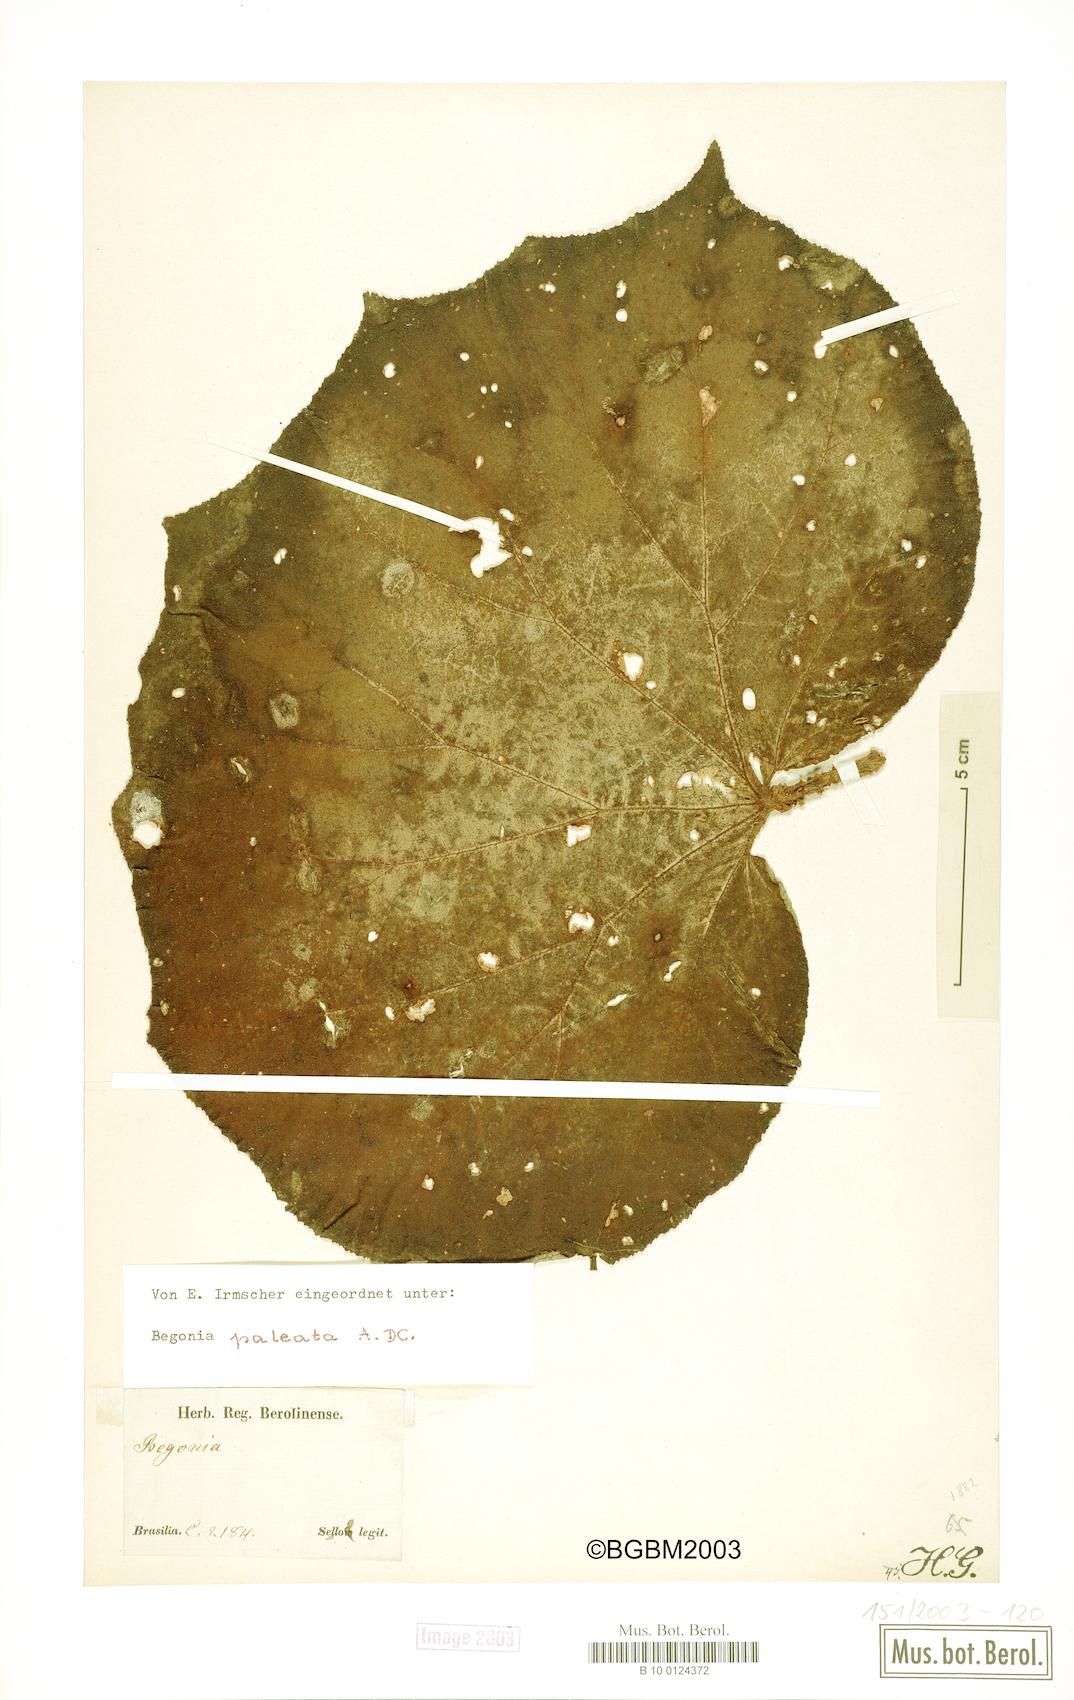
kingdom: Plantae
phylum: Tracheophyta
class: Magnoliopsida
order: Cucurbitales
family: Begoniaceae
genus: Begonia
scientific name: Begonia paleata
